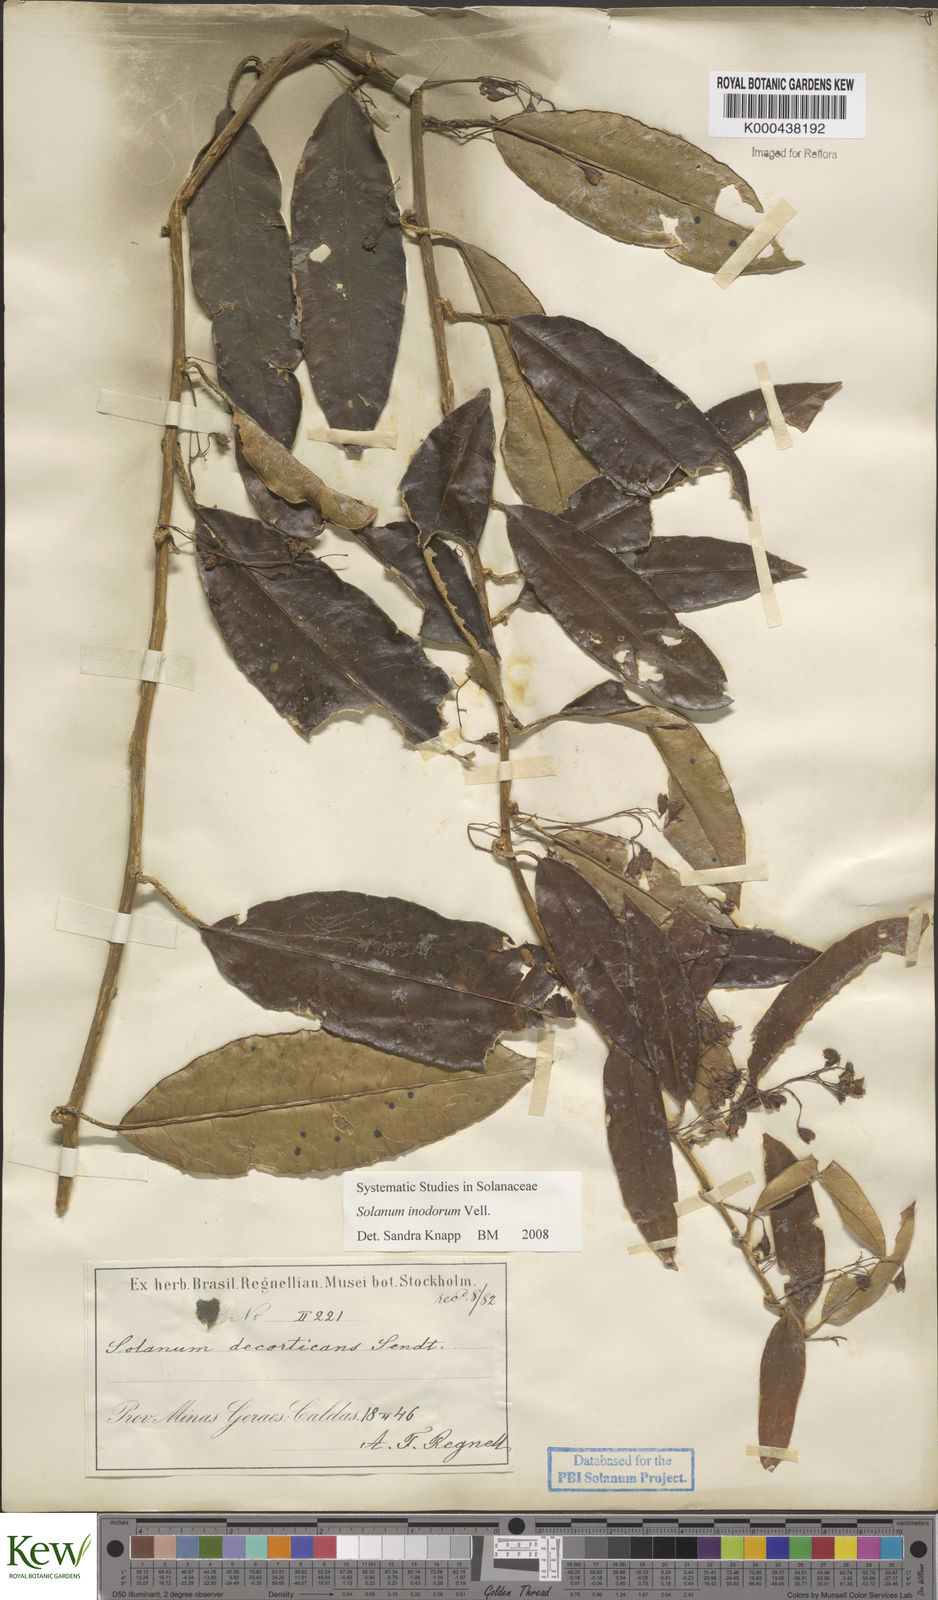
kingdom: Plantae
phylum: Tracheophyta
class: Magnoliopsida
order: Solanales
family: Solanaceae
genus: Solanum
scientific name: Solanum inodorum
